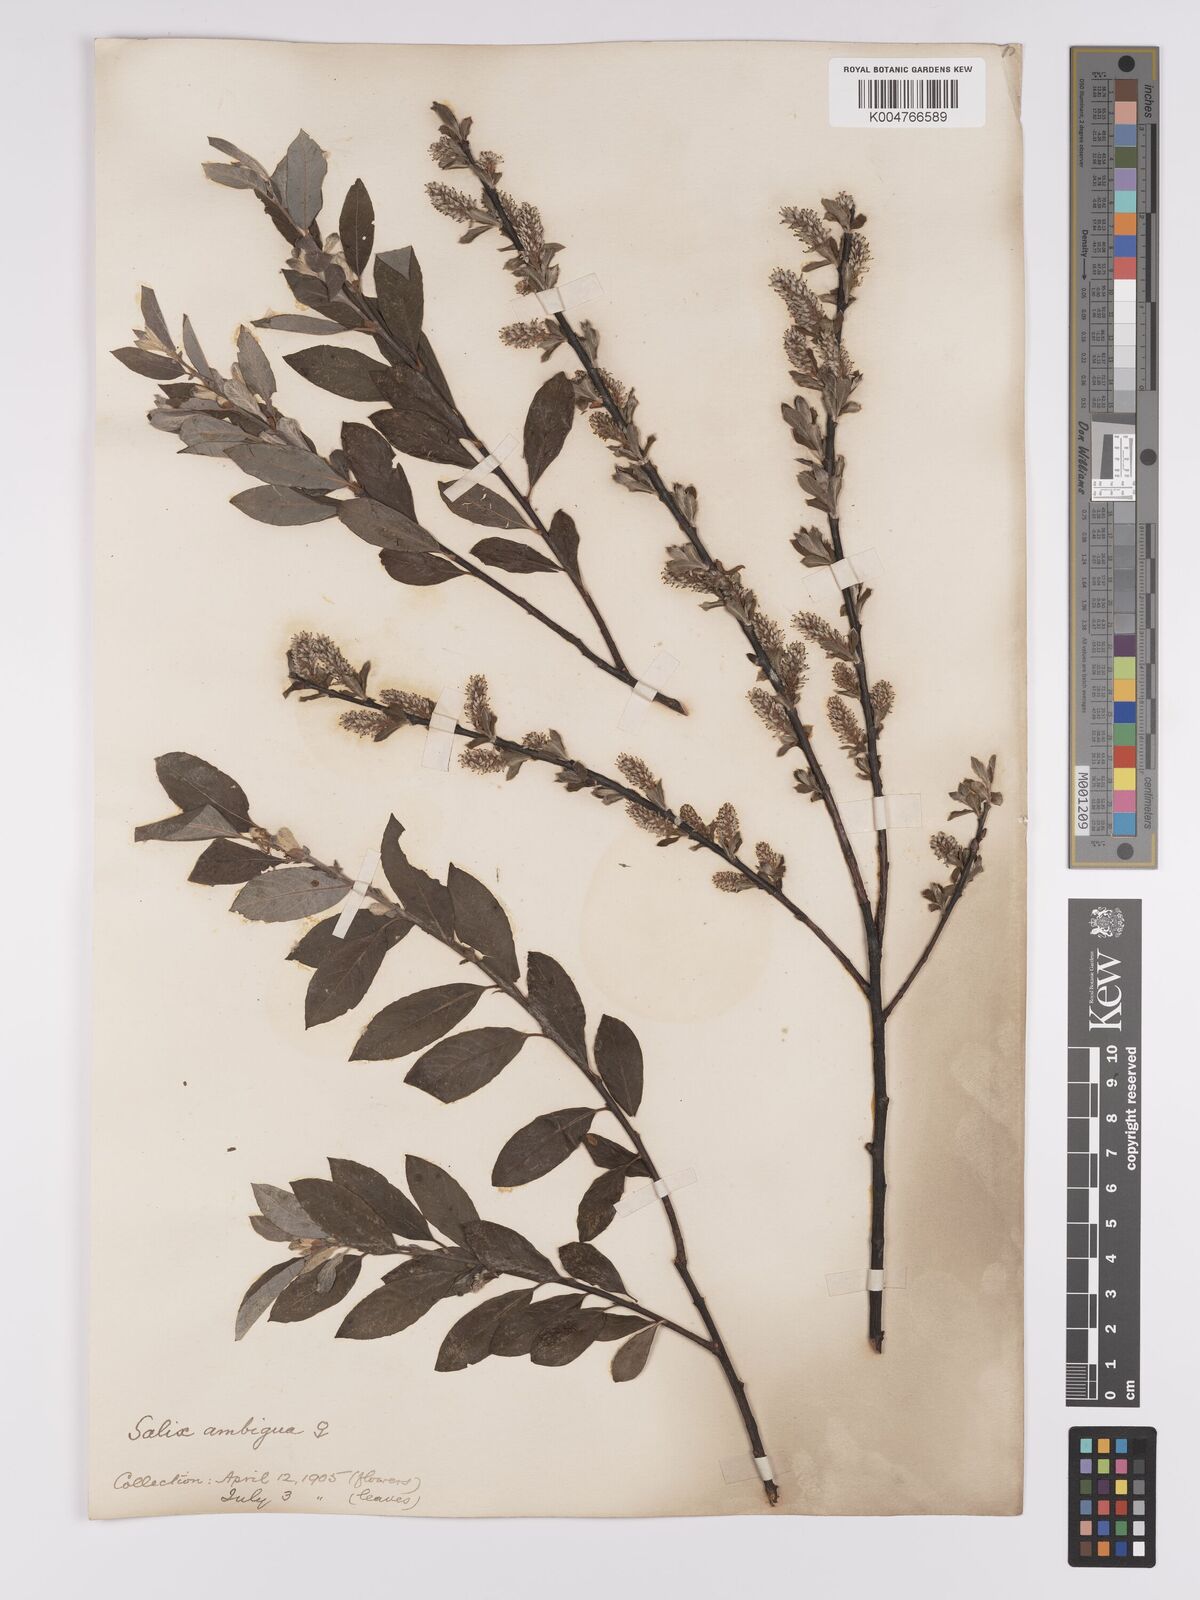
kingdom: Plantae
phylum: Tracheophyta
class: Magnoliopsida
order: Malpighiales
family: Salicaceae
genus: Salix
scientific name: Salix
